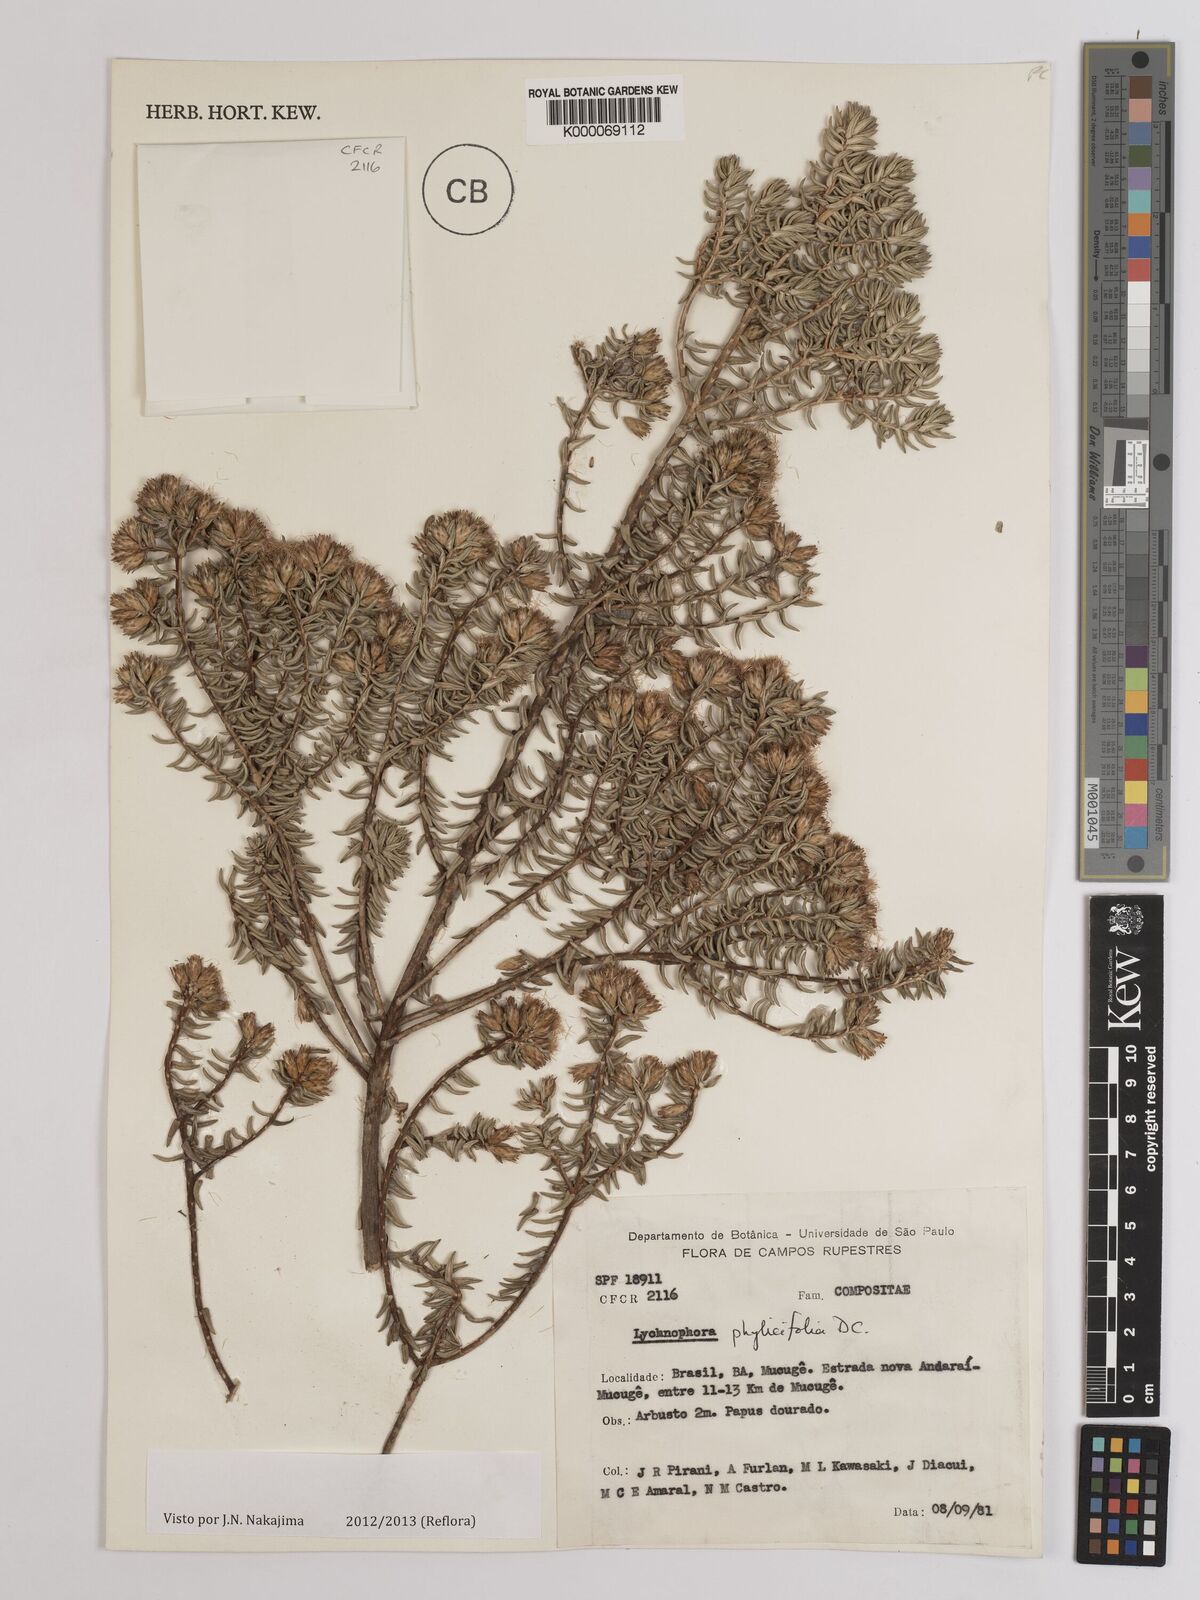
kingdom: Plantae
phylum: Tracheophyta
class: Magnoliopsida
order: Asterales
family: Asteraceae
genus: Lychnophora
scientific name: Lychnophora phylicifolia
